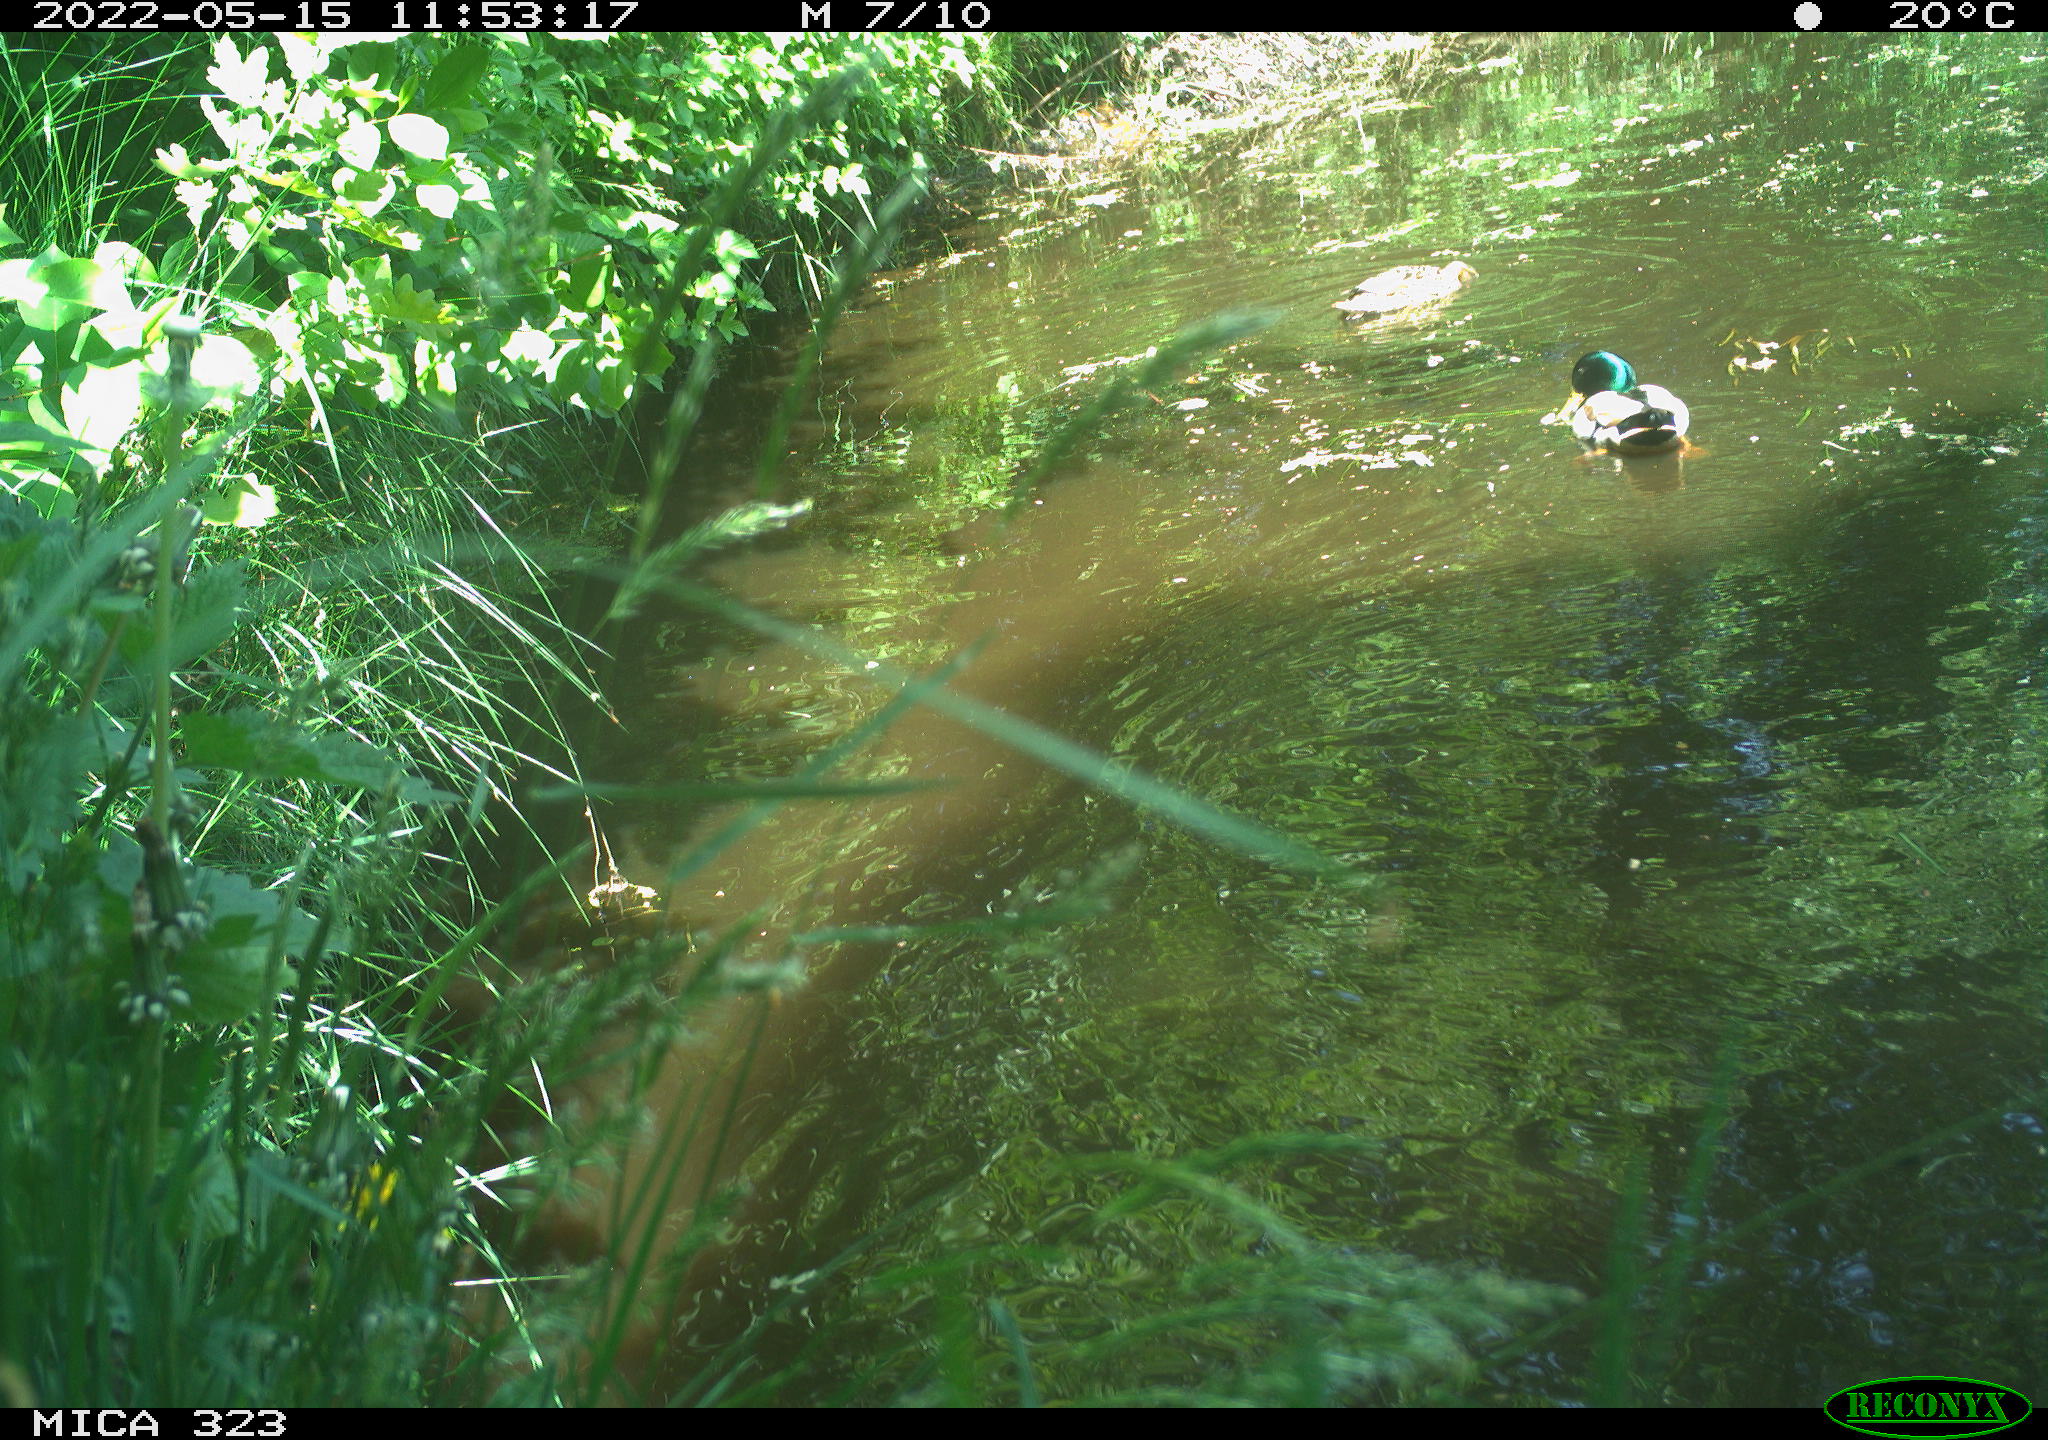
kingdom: Animalia
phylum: Chordata
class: Aves
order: Anseriformes
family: Anatidae
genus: Anas
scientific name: Anas platyrhynchos
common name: Mallard
